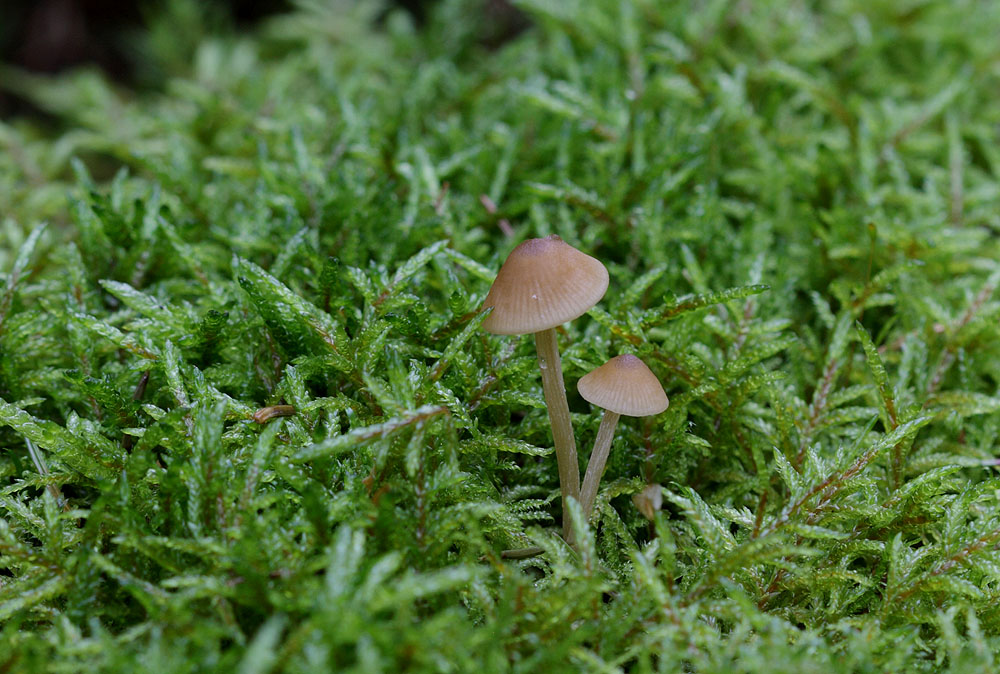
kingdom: Fungi
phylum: Basidiomycota
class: Agaricomycetes
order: Agaricales
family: Entolomataceae
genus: Entoloma
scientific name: Entoloma cetratum
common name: voks-rødblad
